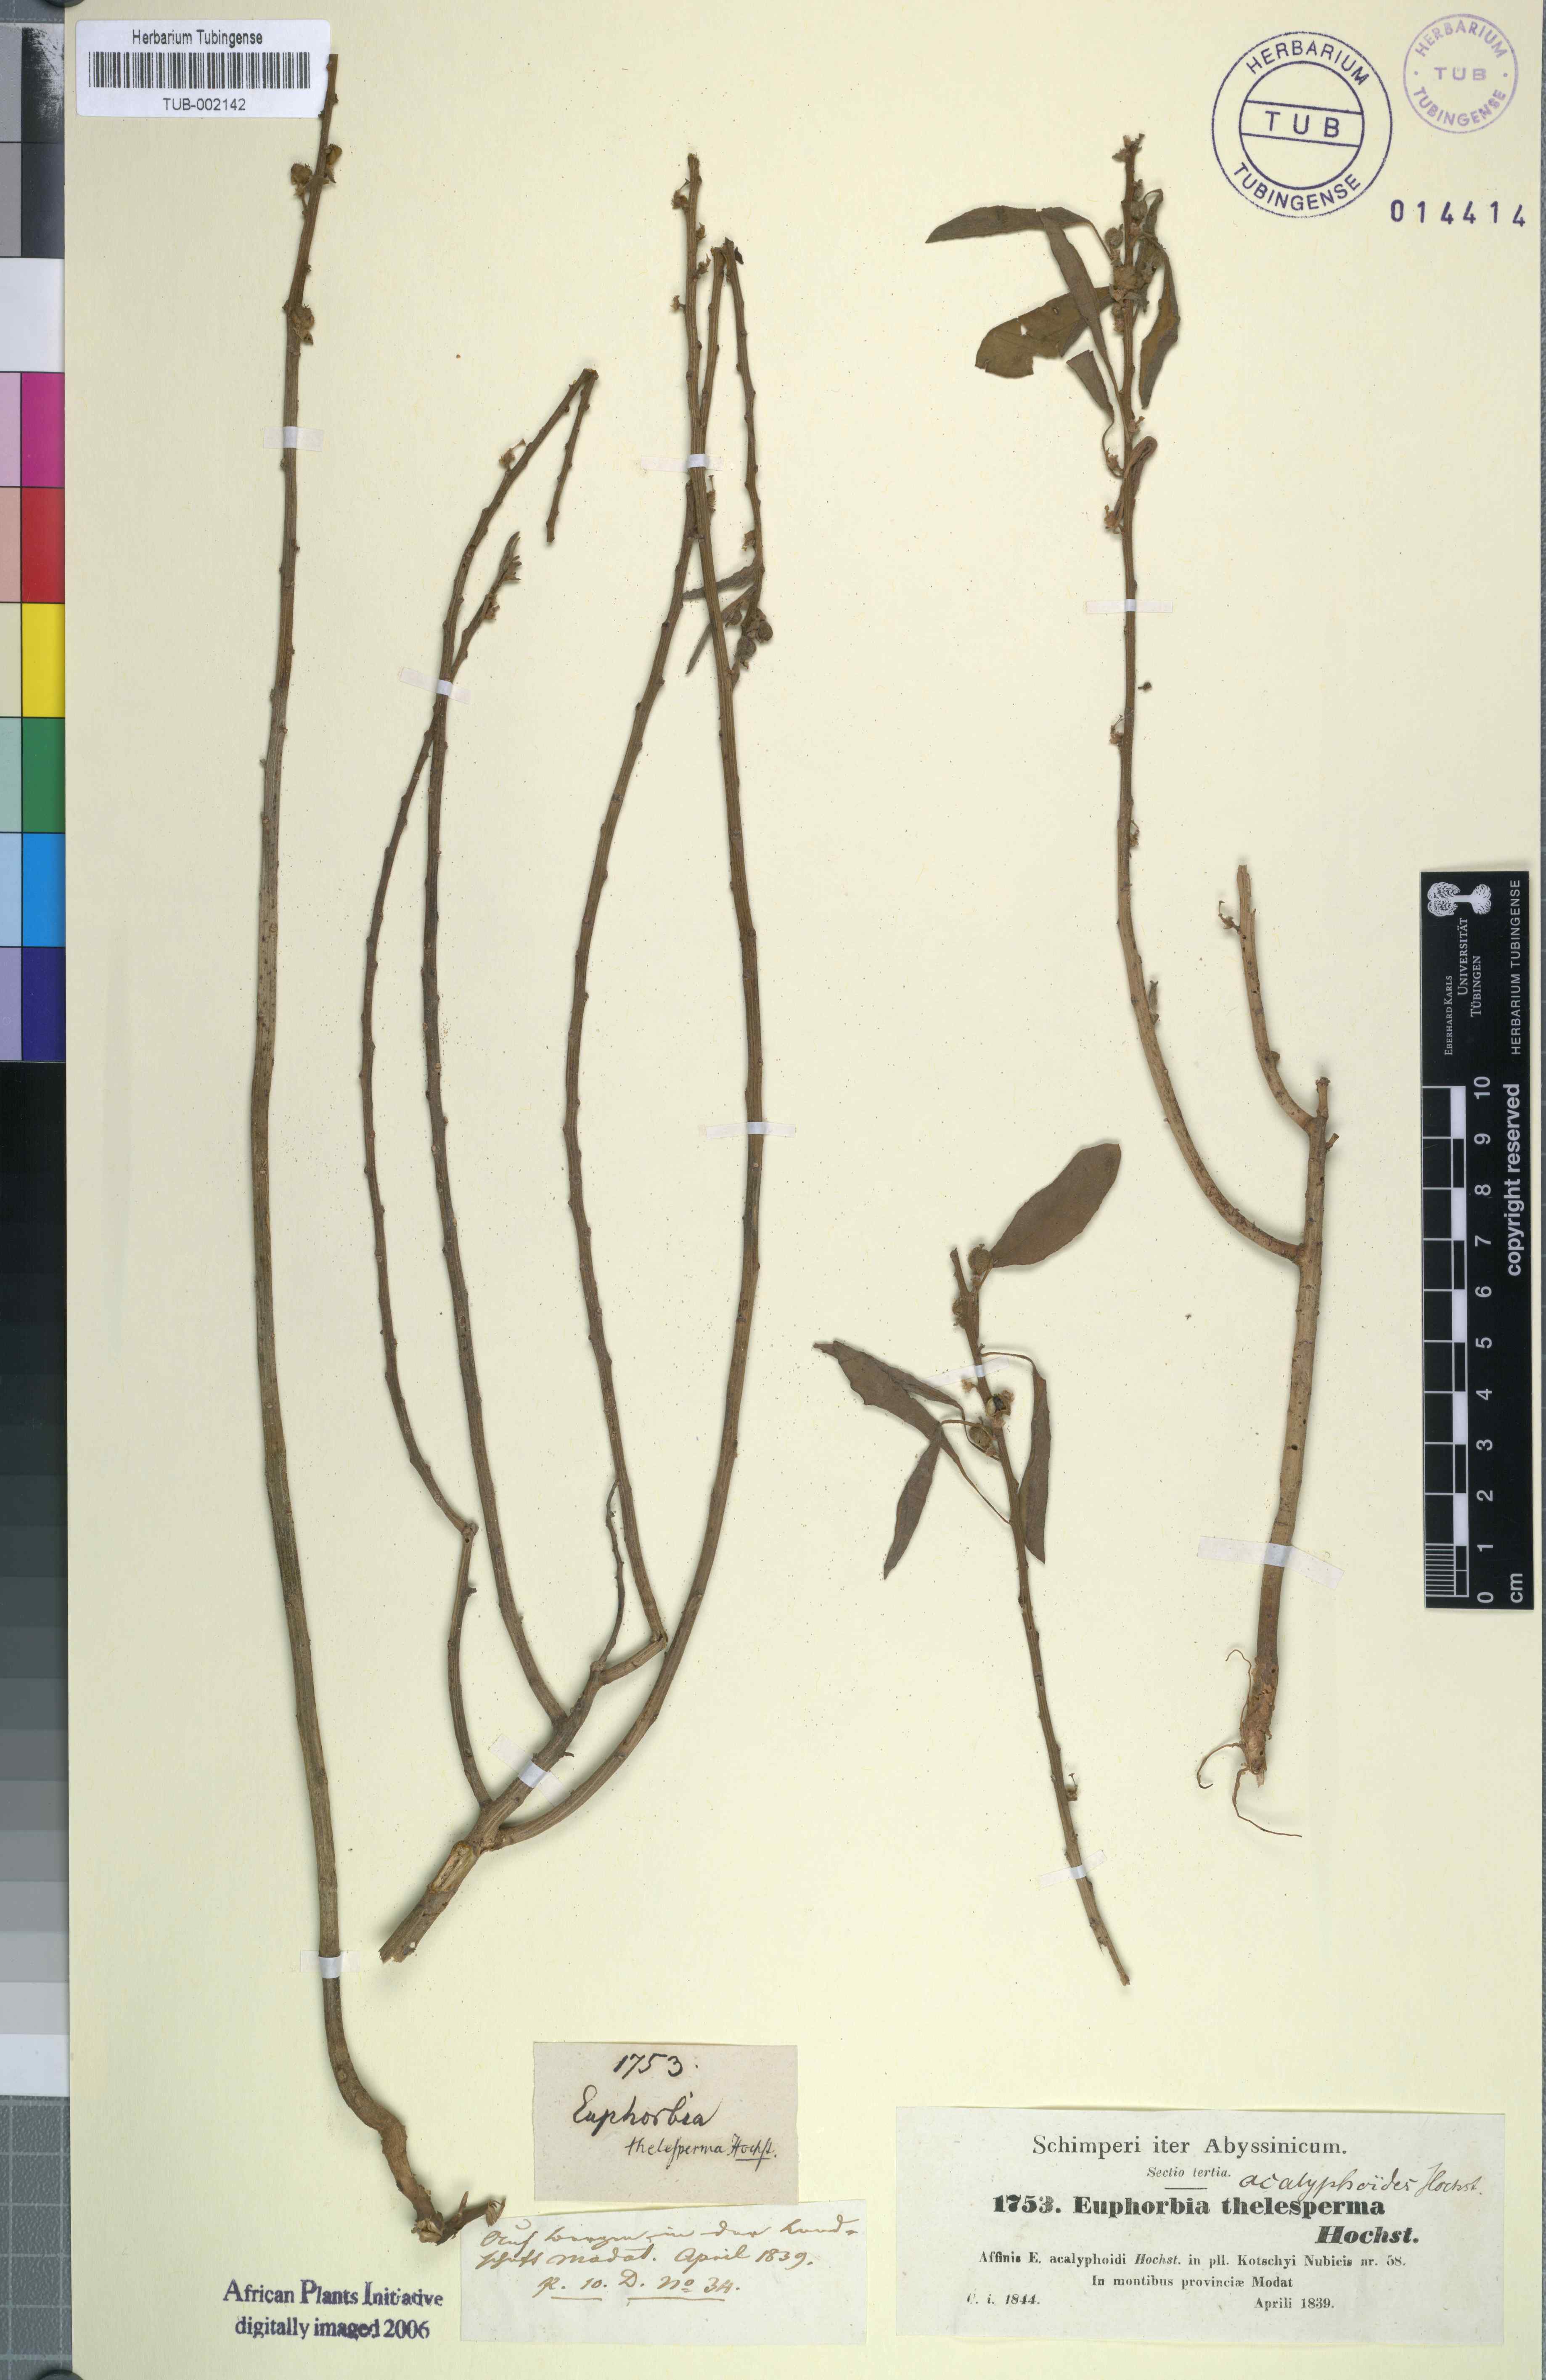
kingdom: Plantae
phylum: Tracheophyta
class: Magnoliopsida
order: Malpighiales
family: Euphorbiaceae
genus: Euphorbia
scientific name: Euphorbia acalyphoides
